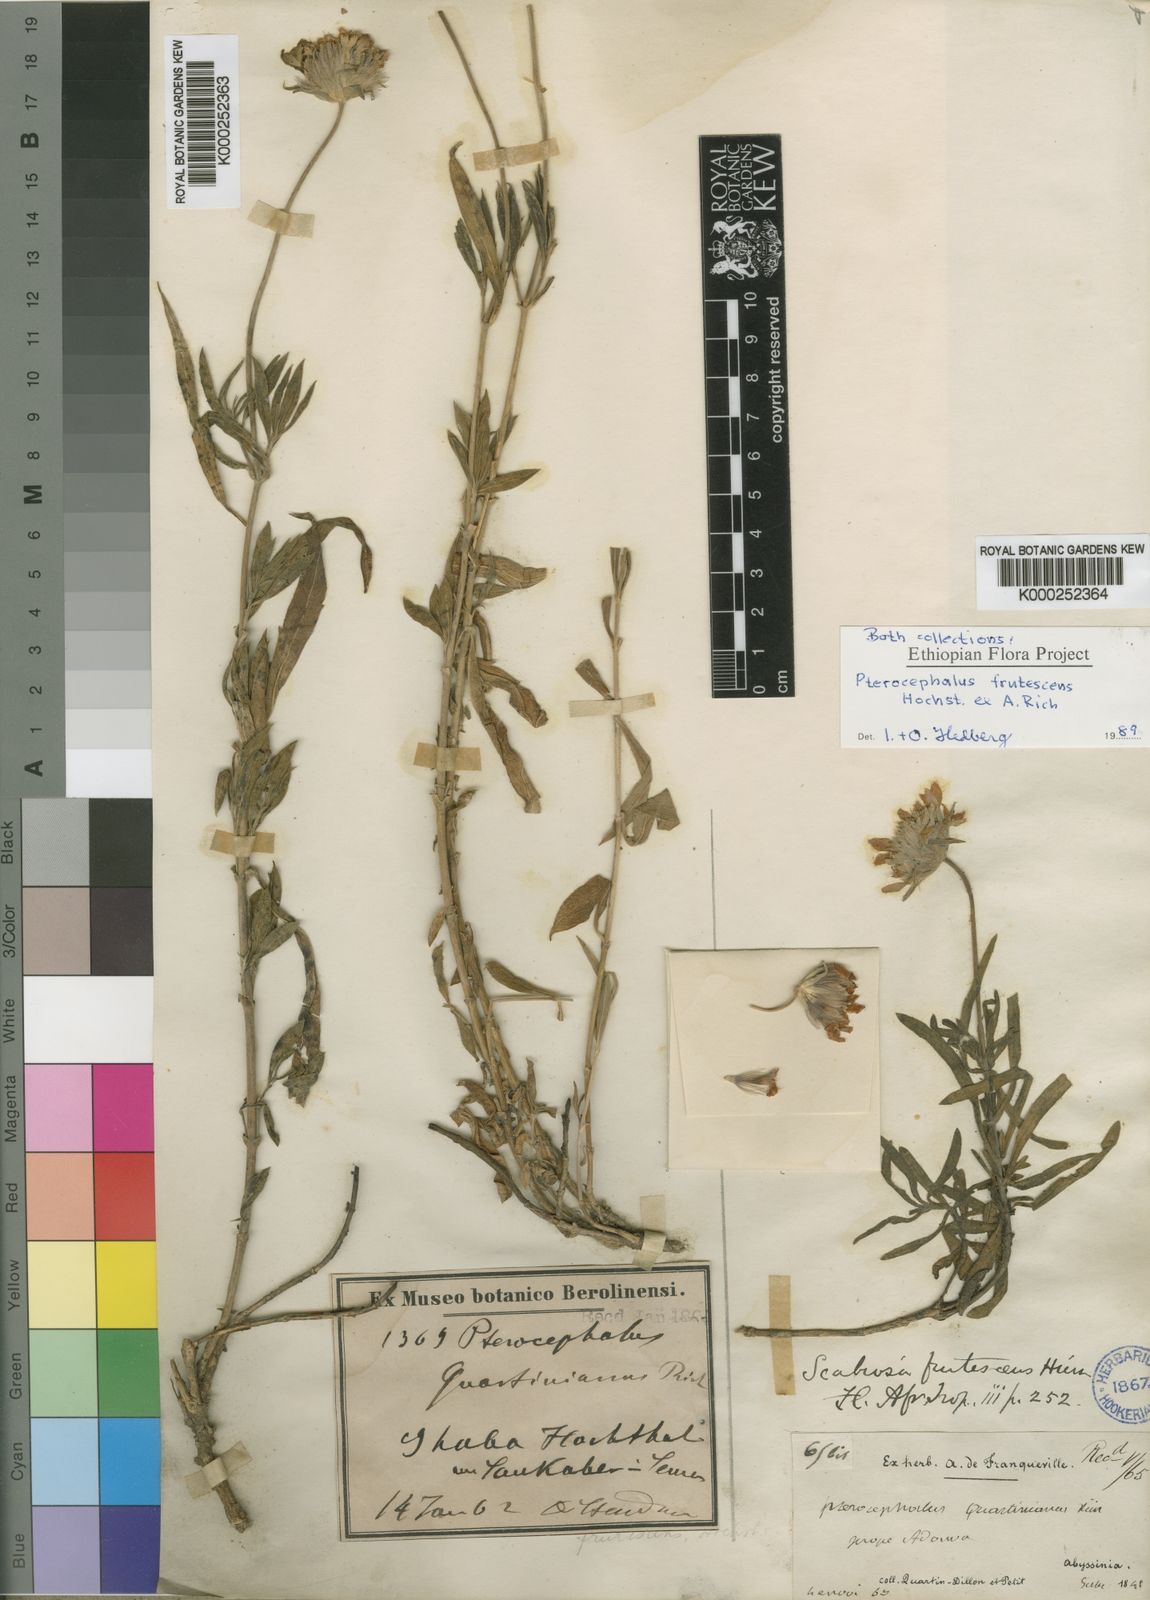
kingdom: Plantae
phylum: Tracheophyta
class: Magnoliopsida
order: Dipsacales
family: Caprifoliaceae
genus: Pterocephalus
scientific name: Pterocephalus
